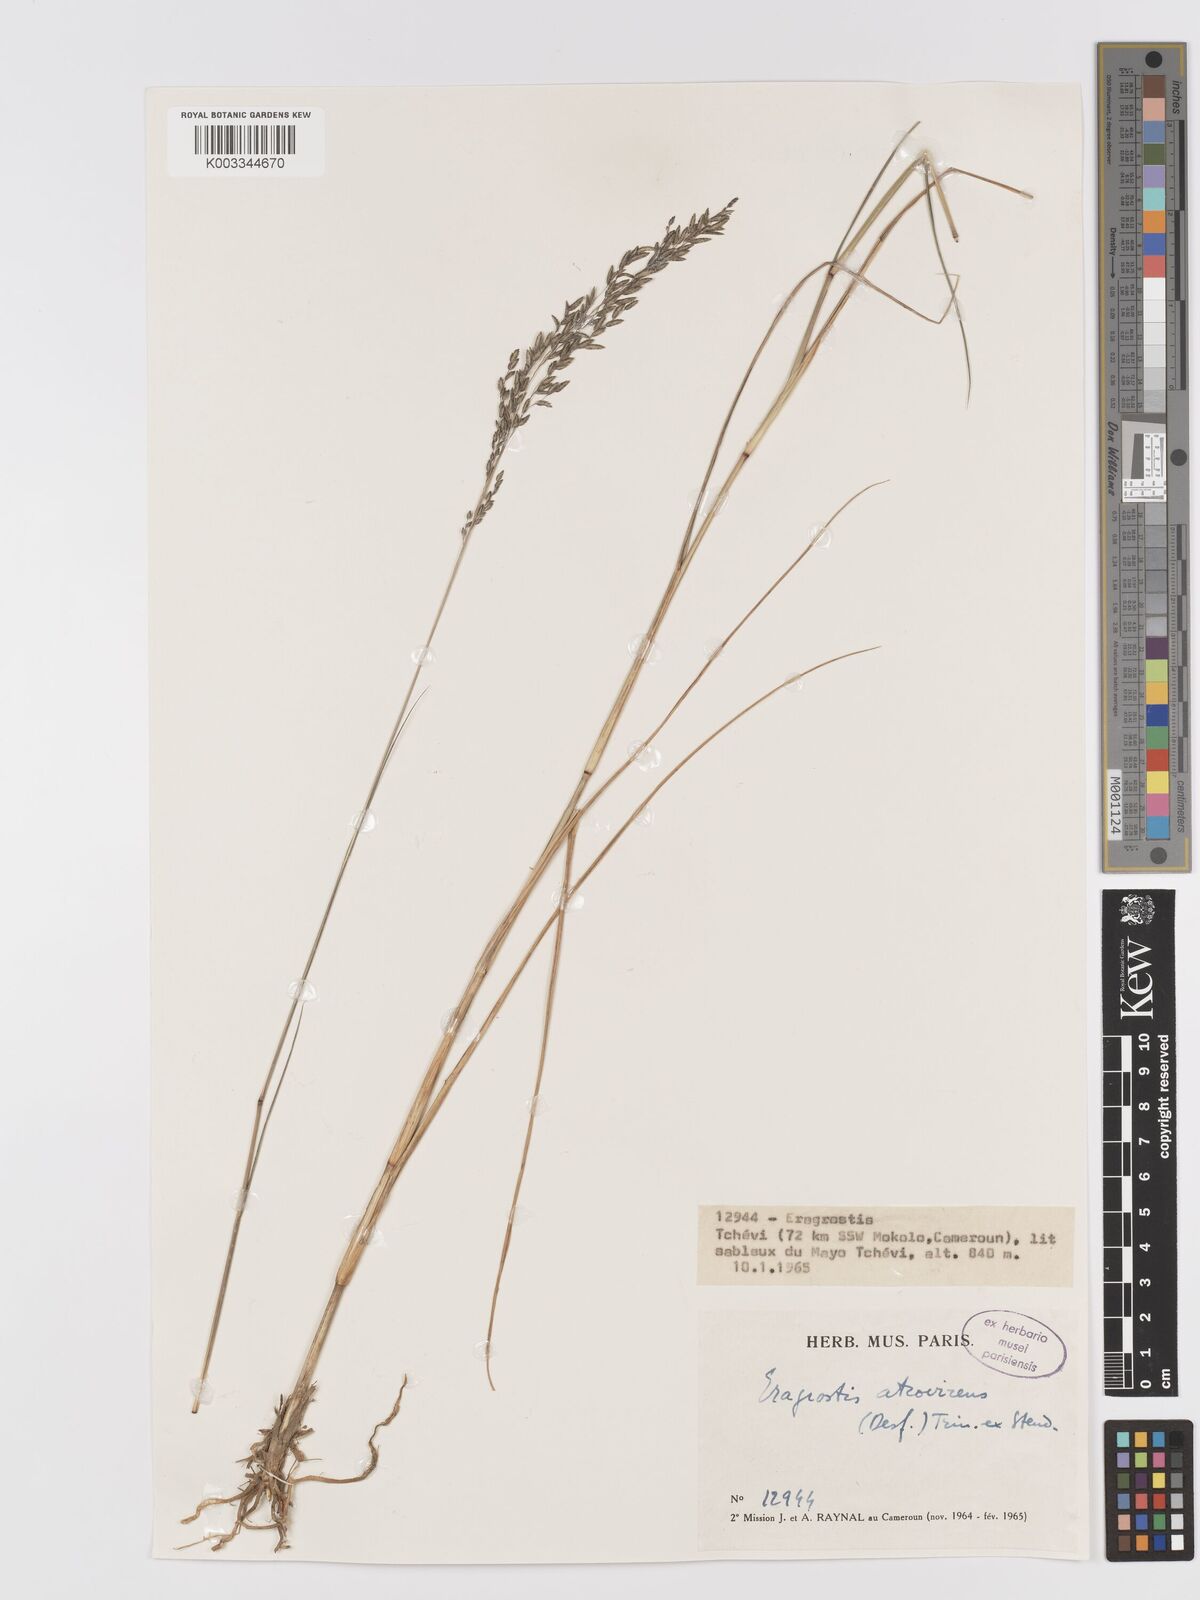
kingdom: Plantae
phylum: Tracheophyta
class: Liliopsida
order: Poales
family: Poaceae
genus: Eragrostis
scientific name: Eragrostis atrovirens
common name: Thalia lovegrass
